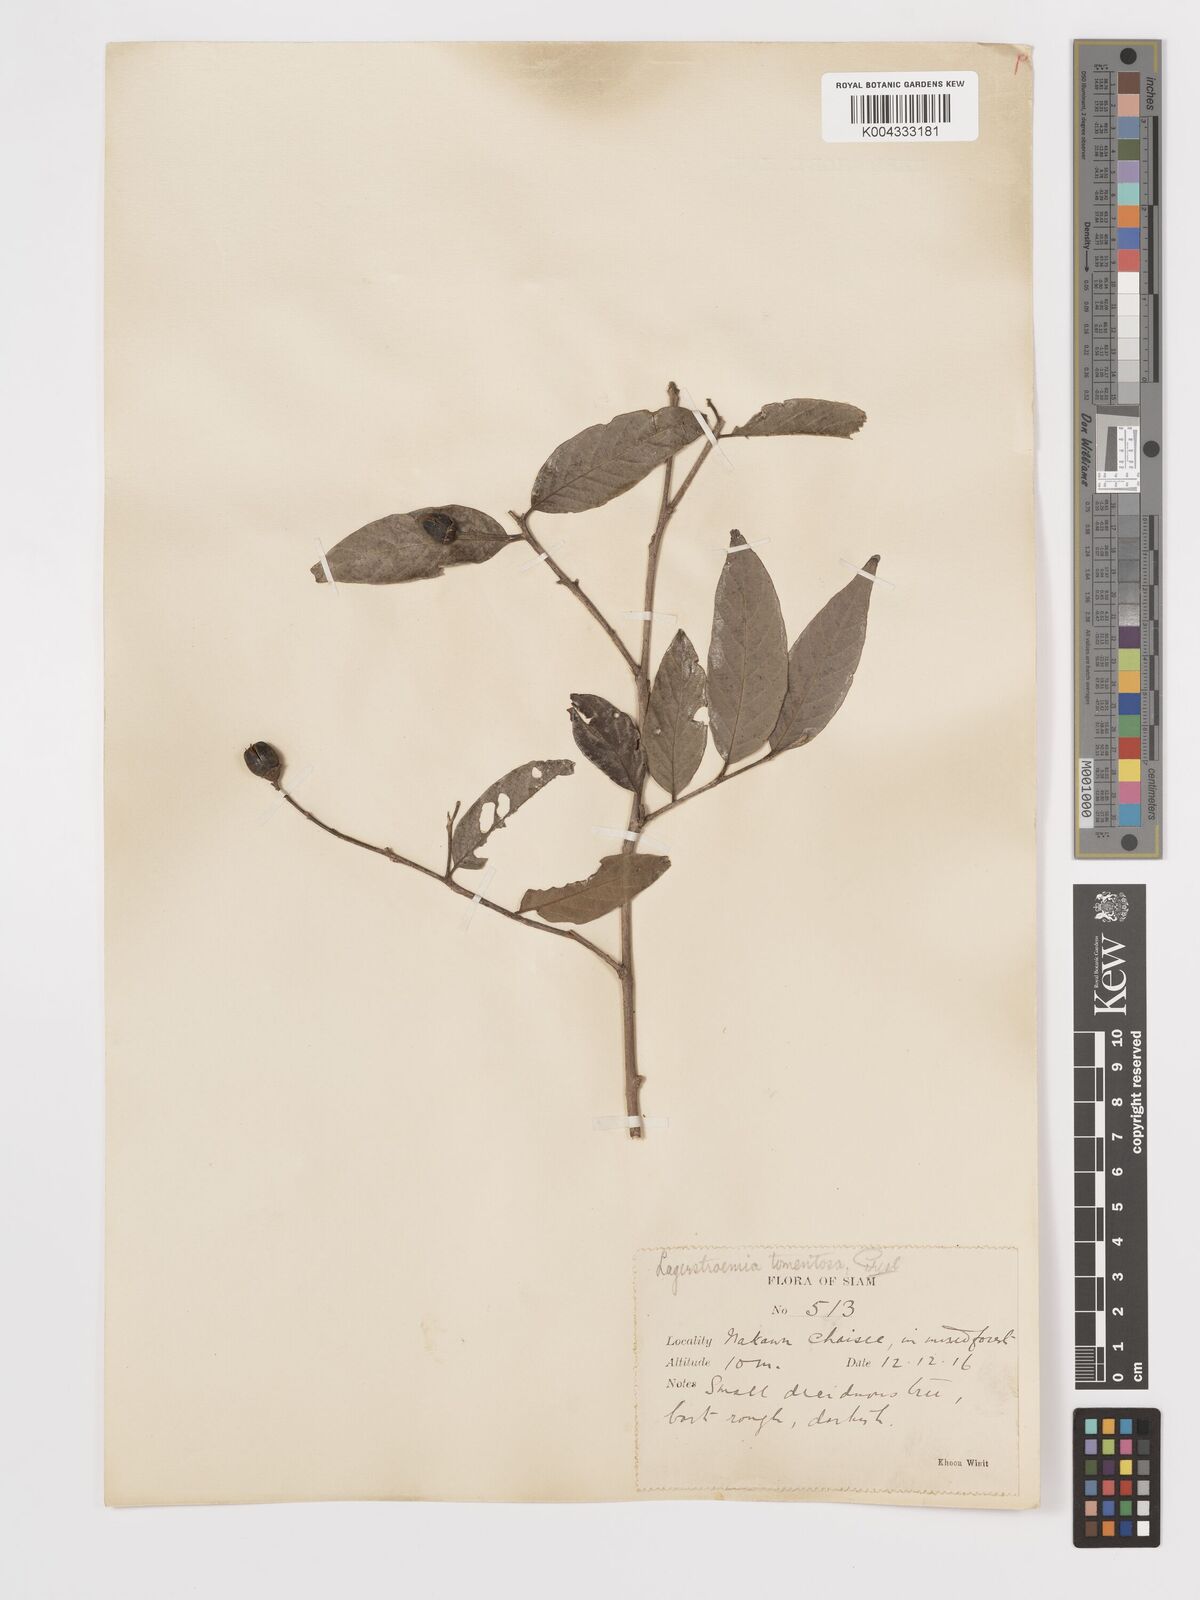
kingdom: Plantae
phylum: Tracheophyta
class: Magnoliopsida
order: Myrtales
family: Lythraceae
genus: Lagerstroemia
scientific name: Lagerstroemia tomentosa
